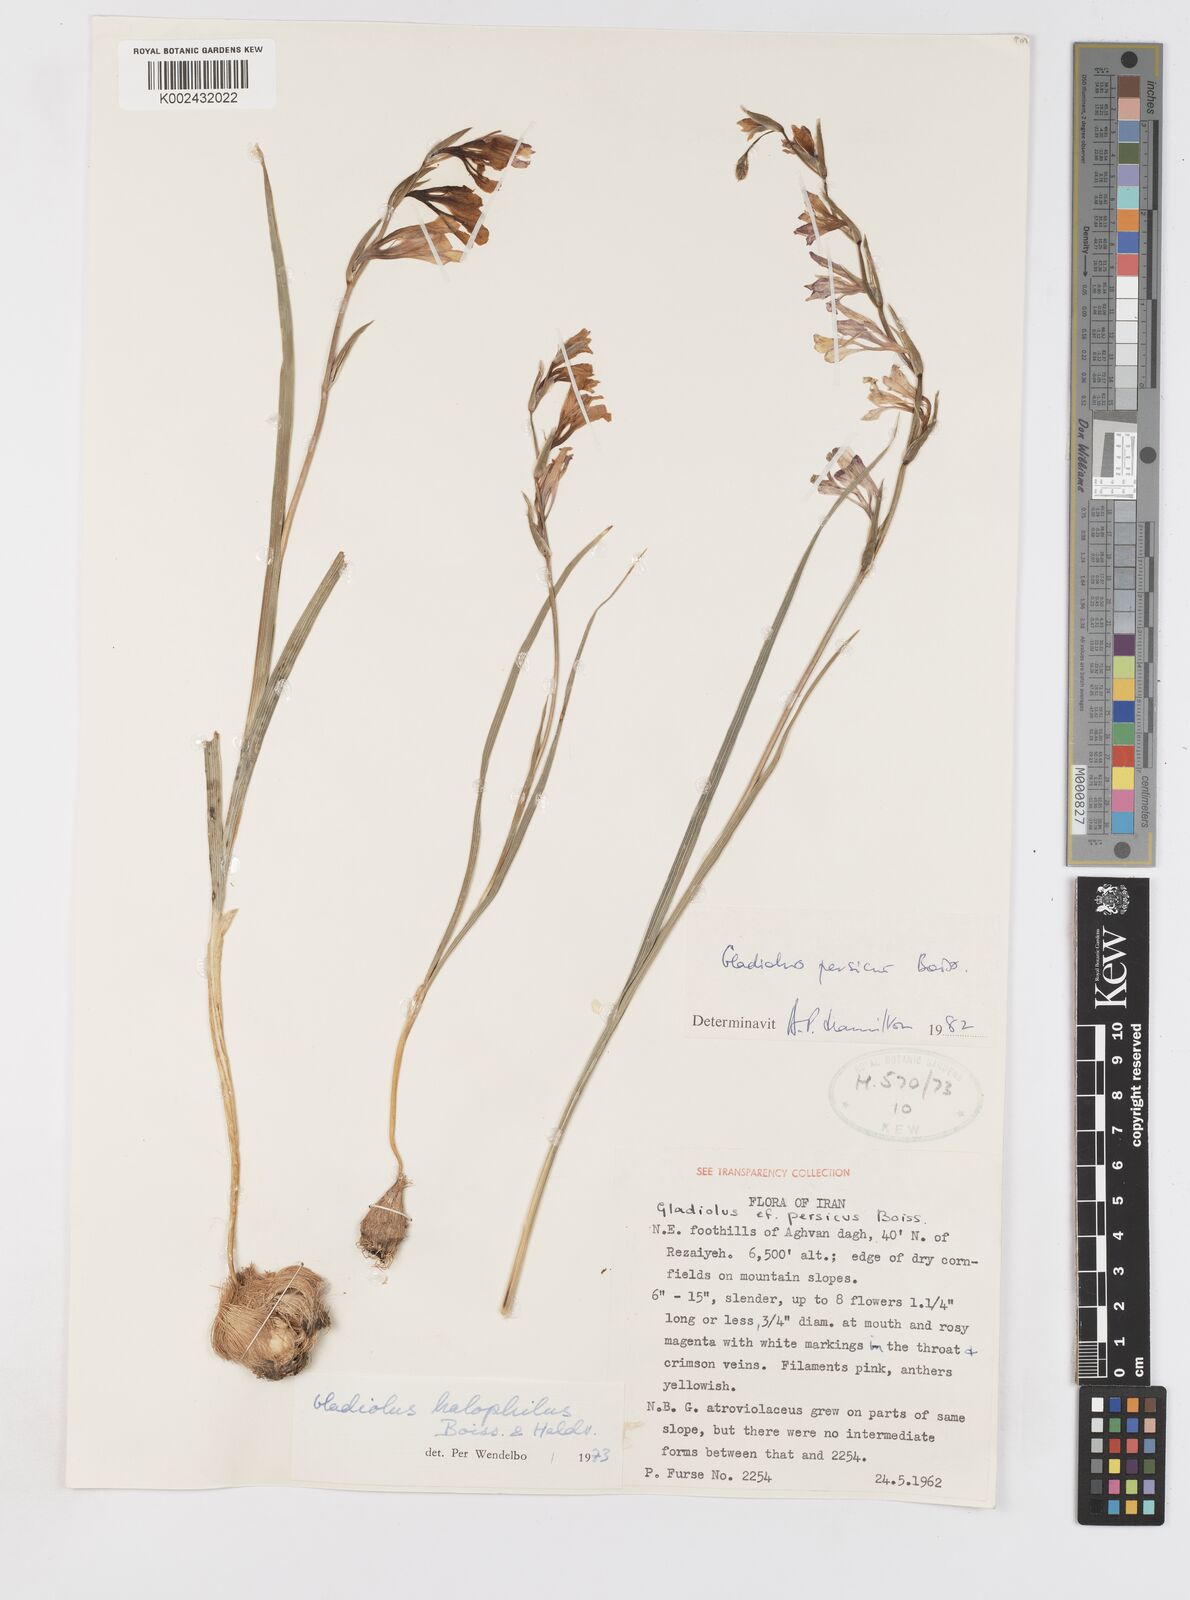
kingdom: Plantae
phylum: Tracheophyta
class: Liliopsida
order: Asparagales
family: Iridaceae
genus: Gladiolus
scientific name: Gladiolus persicus
